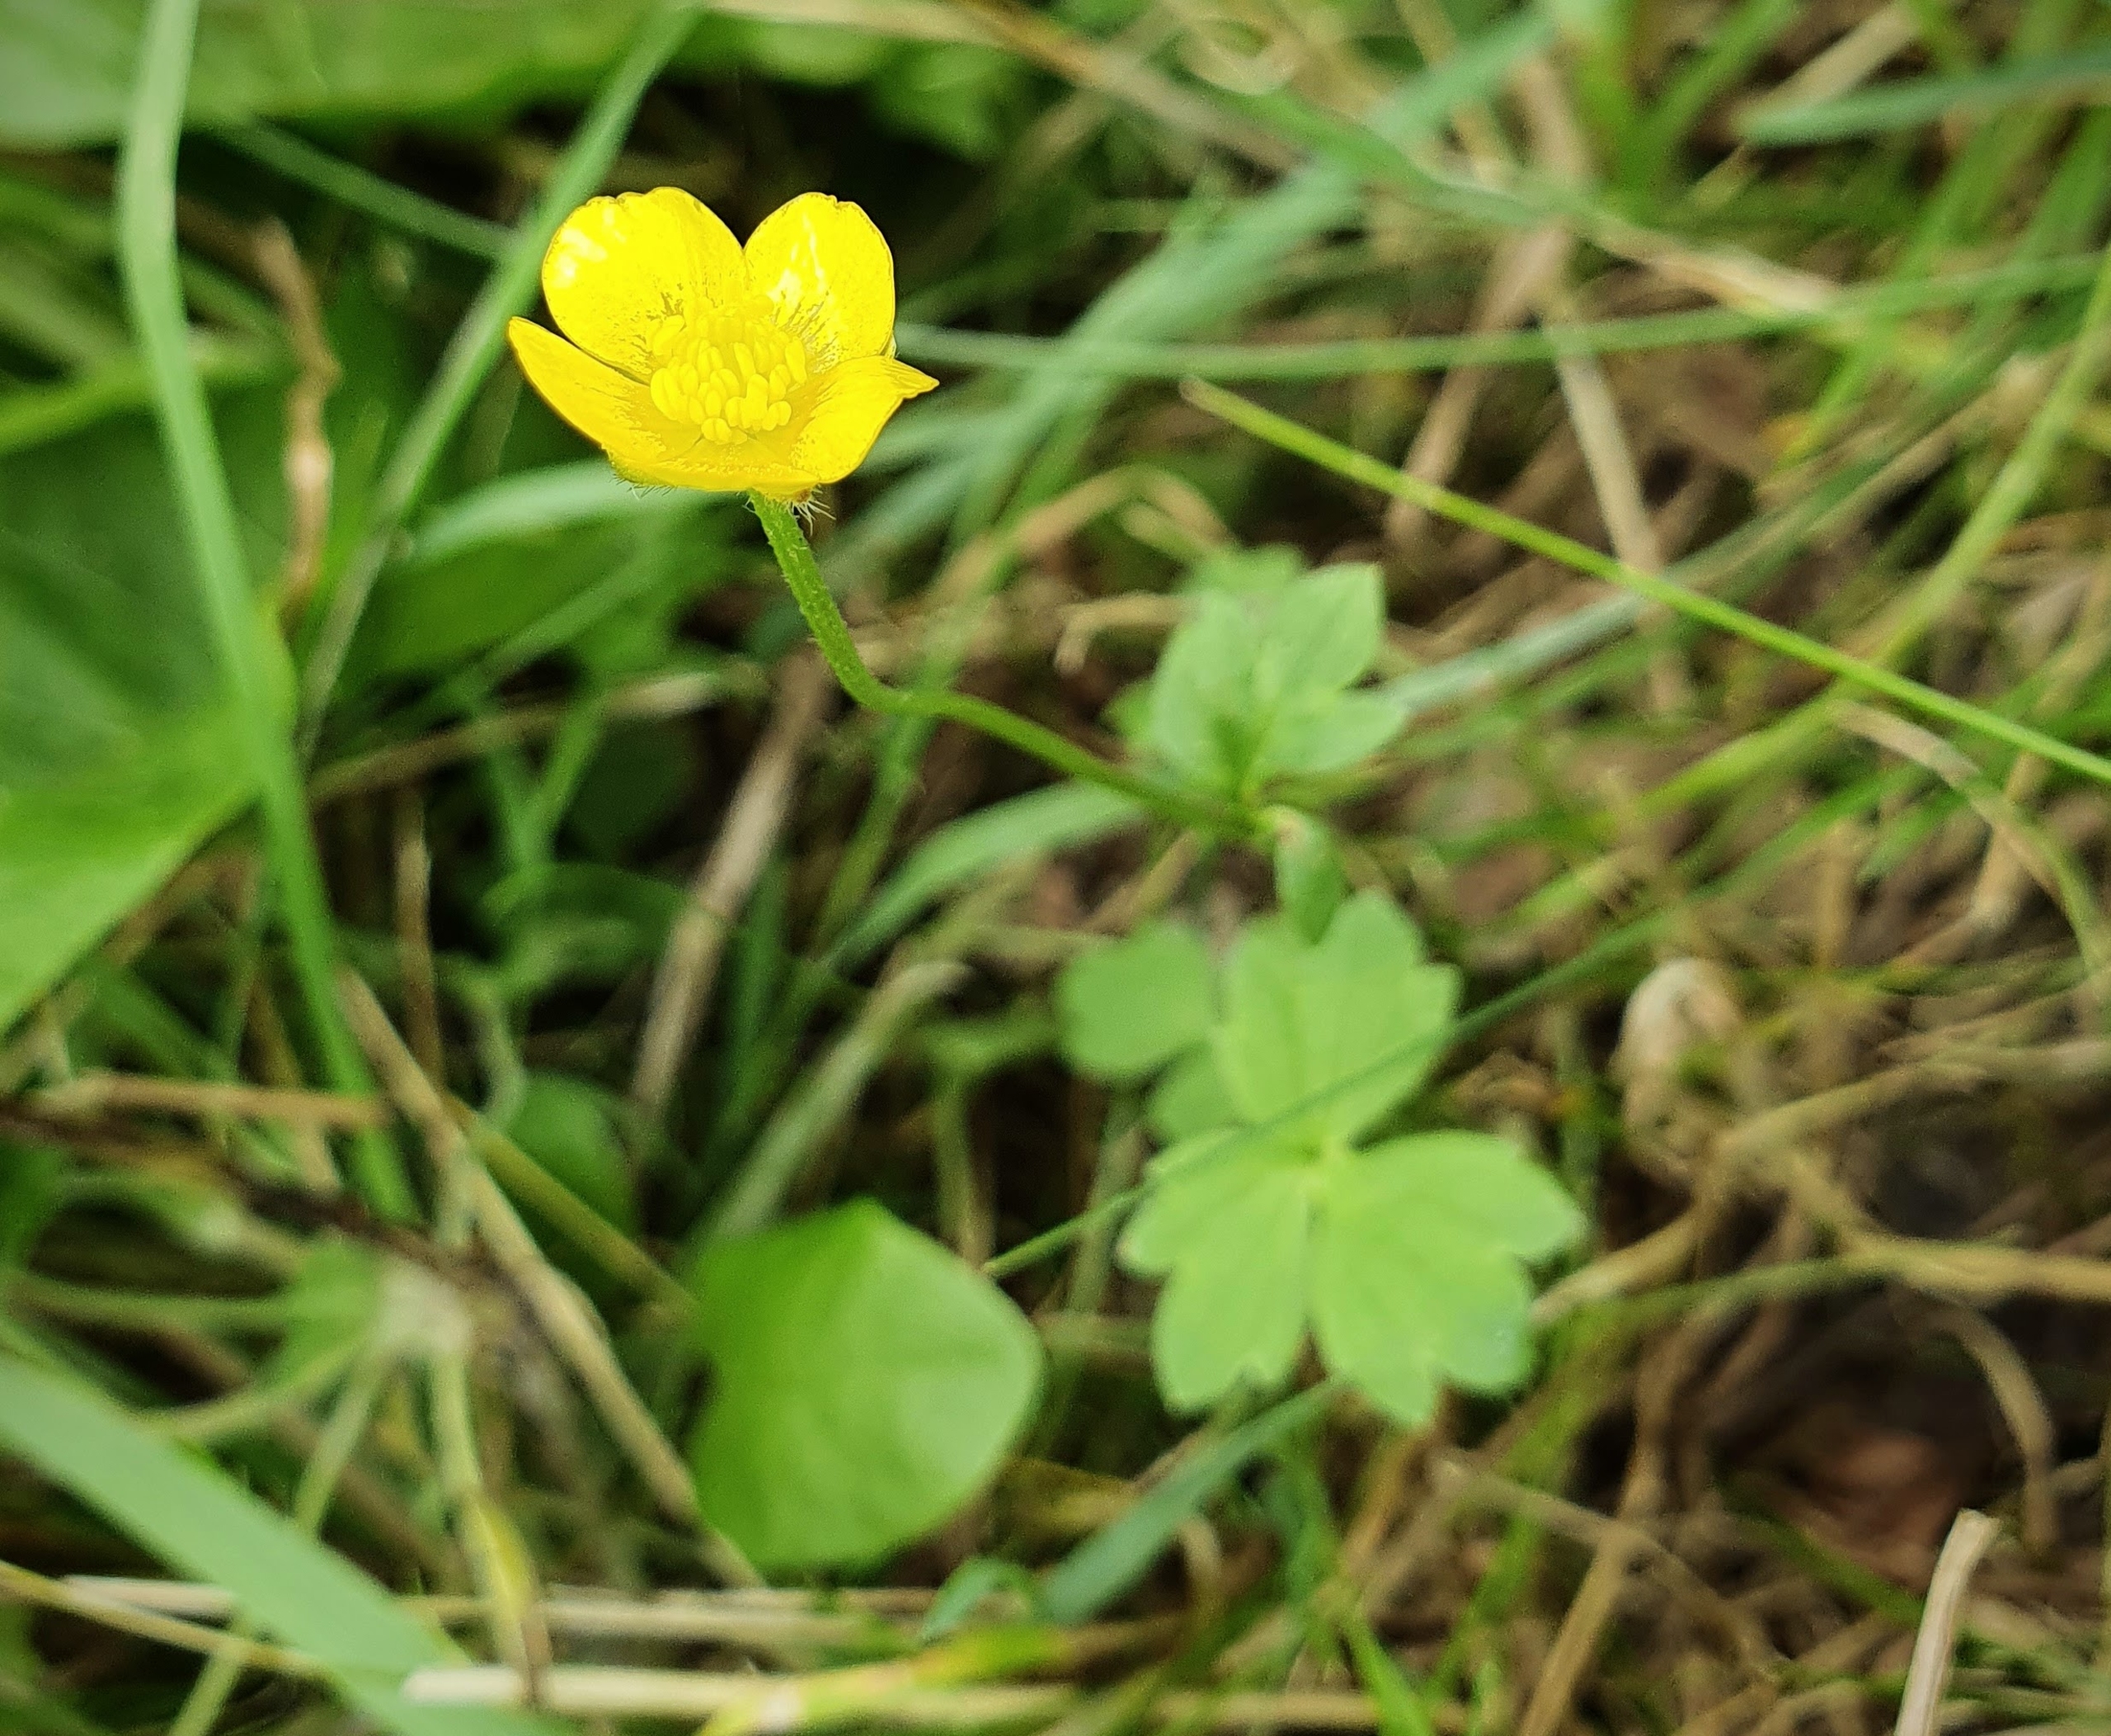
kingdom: Plantae
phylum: Tracheophyta
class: Magnoliopsida
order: Ranunculales
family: Ranunculaceae
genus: Ranunculus
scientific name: Ranunculus repens
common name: Lav ranunkel
